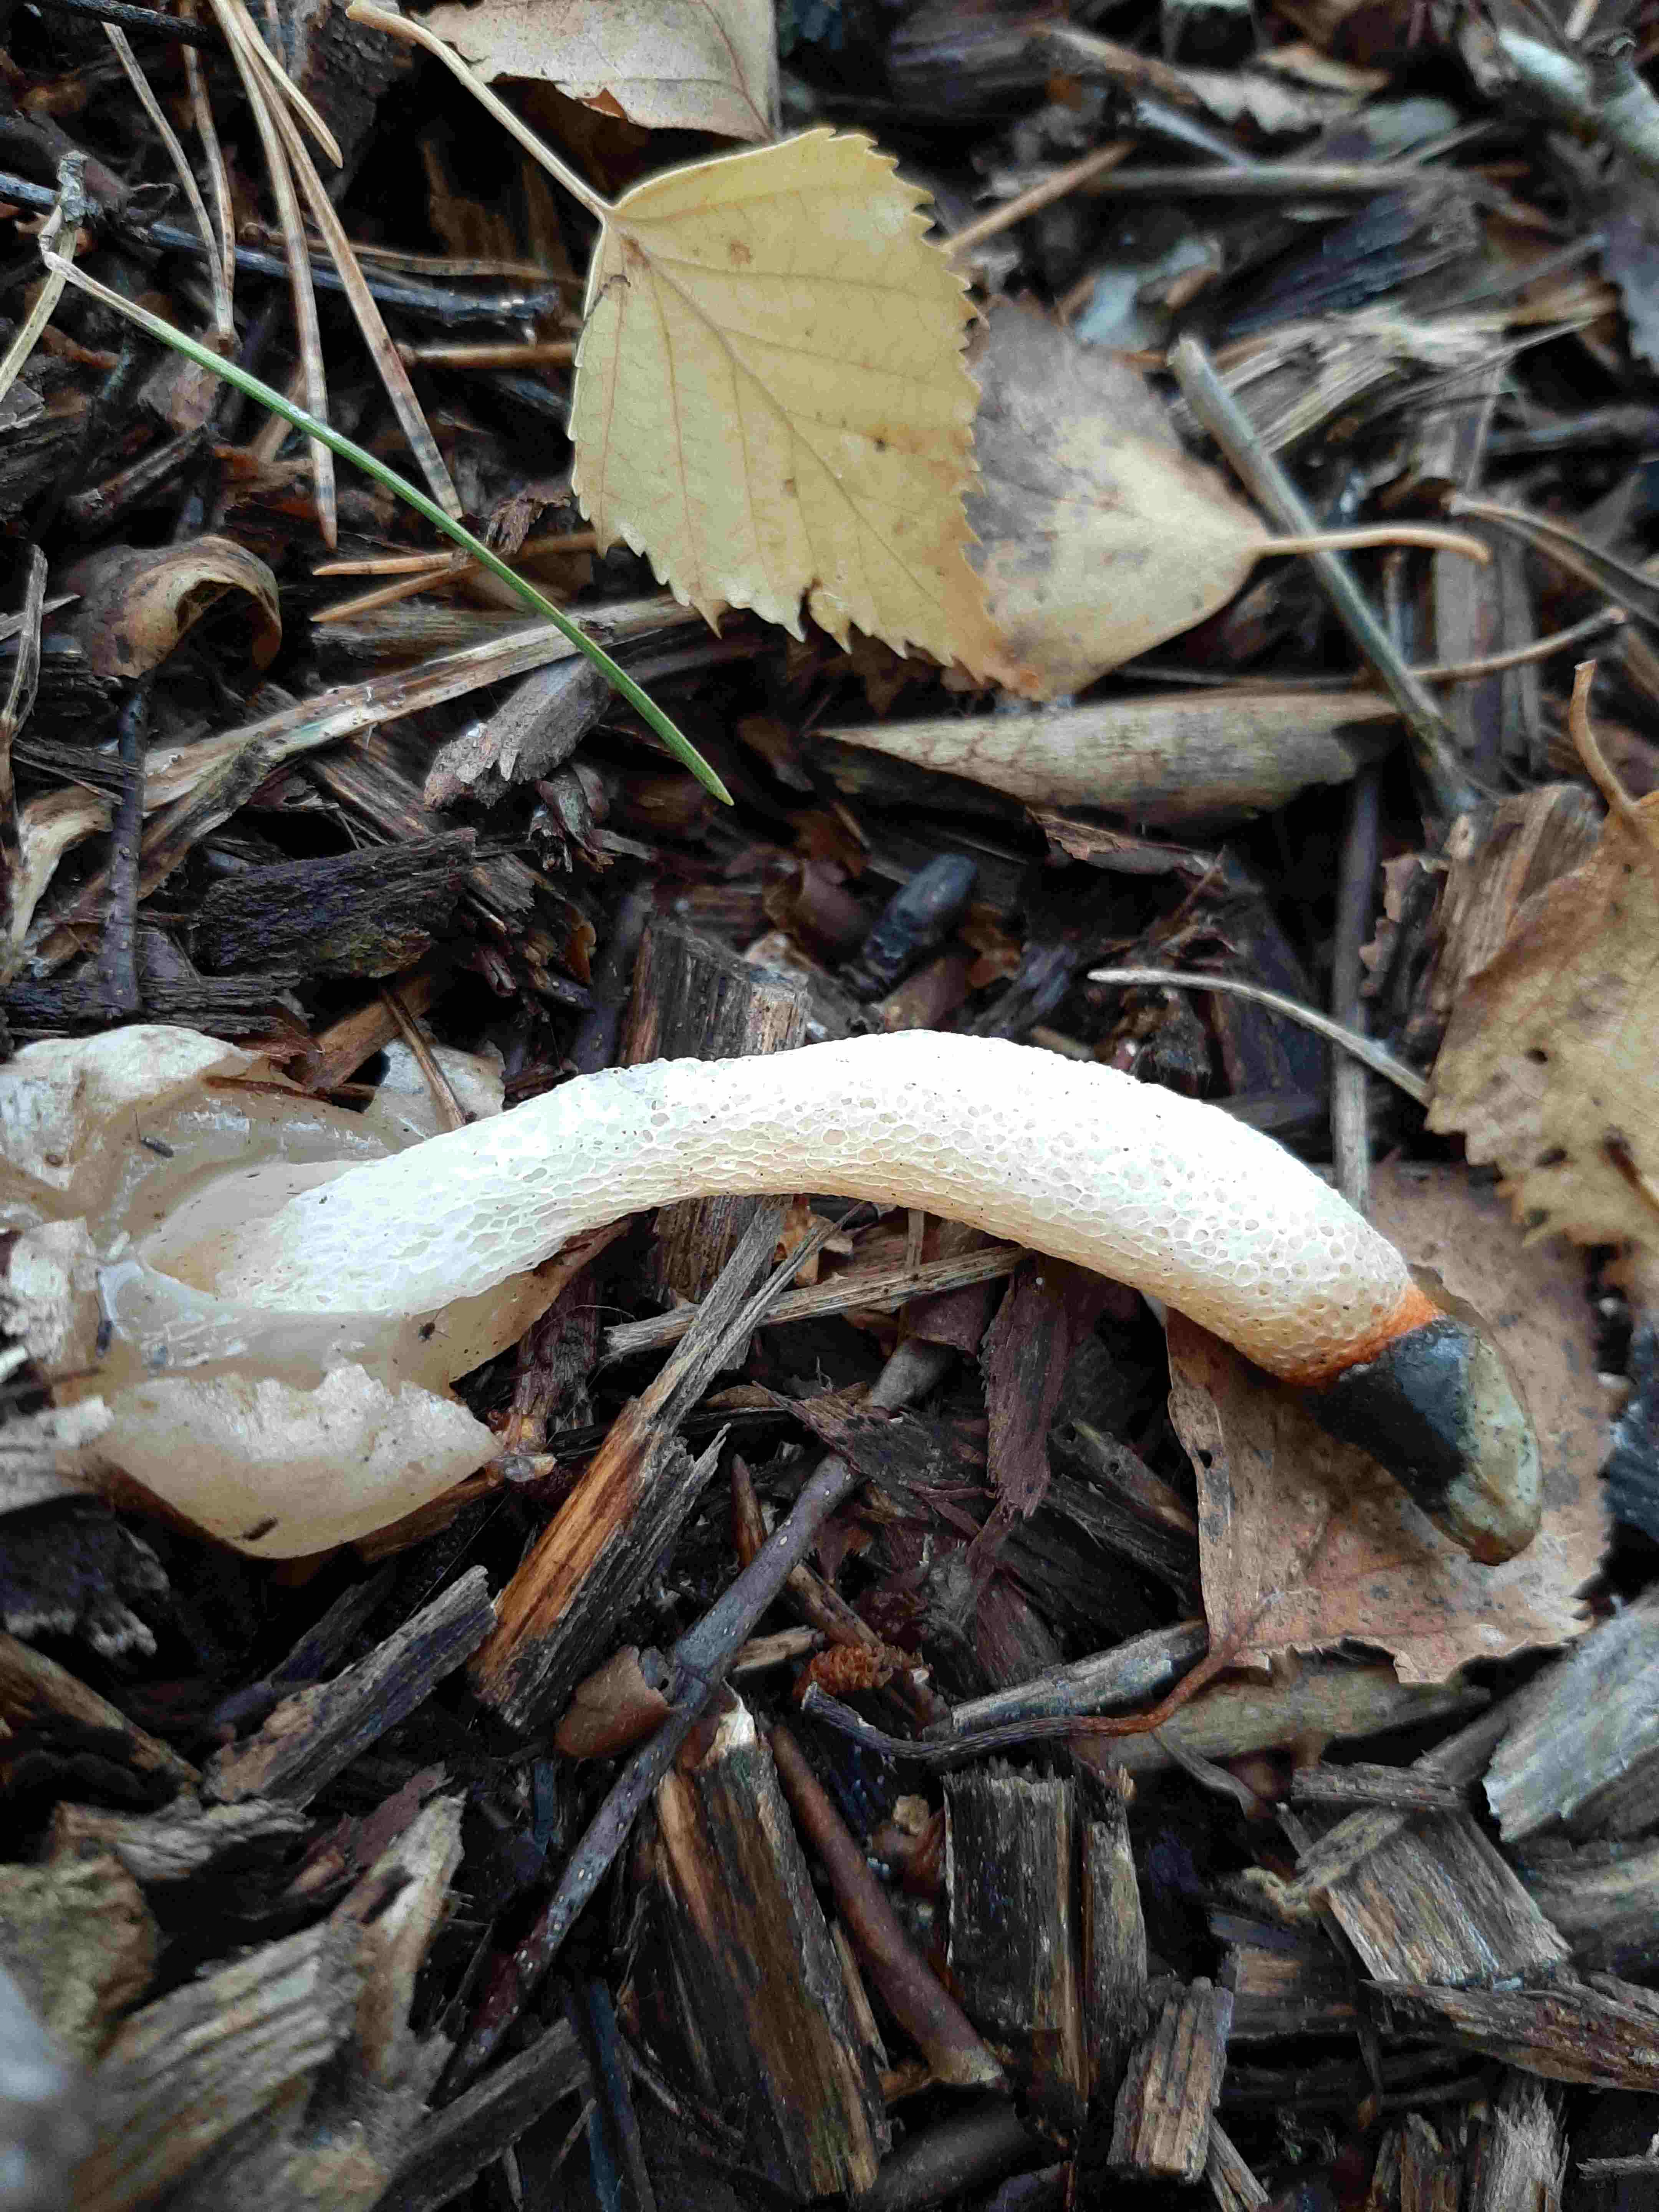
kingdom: Fungi
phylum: Basidiomycota
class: Agaricomycetes
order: Phallales
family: Phallaceae
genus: Mutinus
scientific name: Mutinus caninus
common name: hunde-stinksvamp
